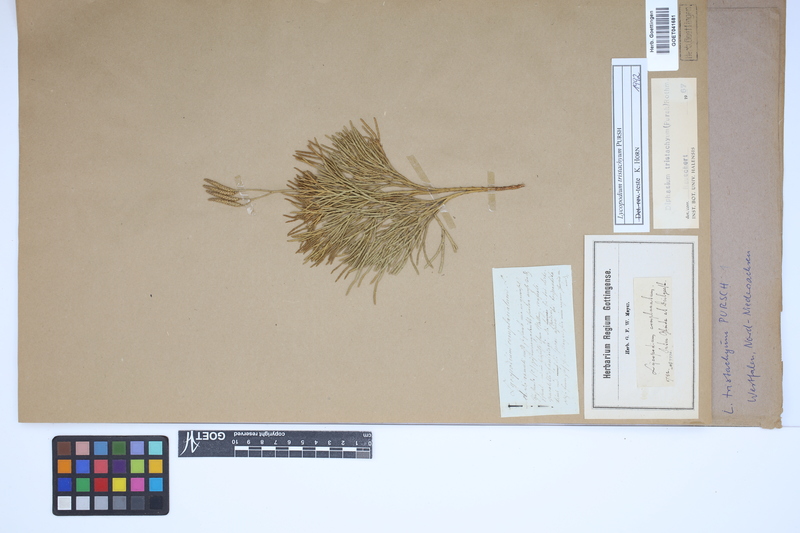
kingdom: Plantae
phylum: Tracheophyta
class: Lycopodiopsida
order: Lycopodiales
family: Lycopodiaceae
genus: Diphasiastrum
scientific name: Diphasiastrum tristachyum
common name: Blue ground-cedar
